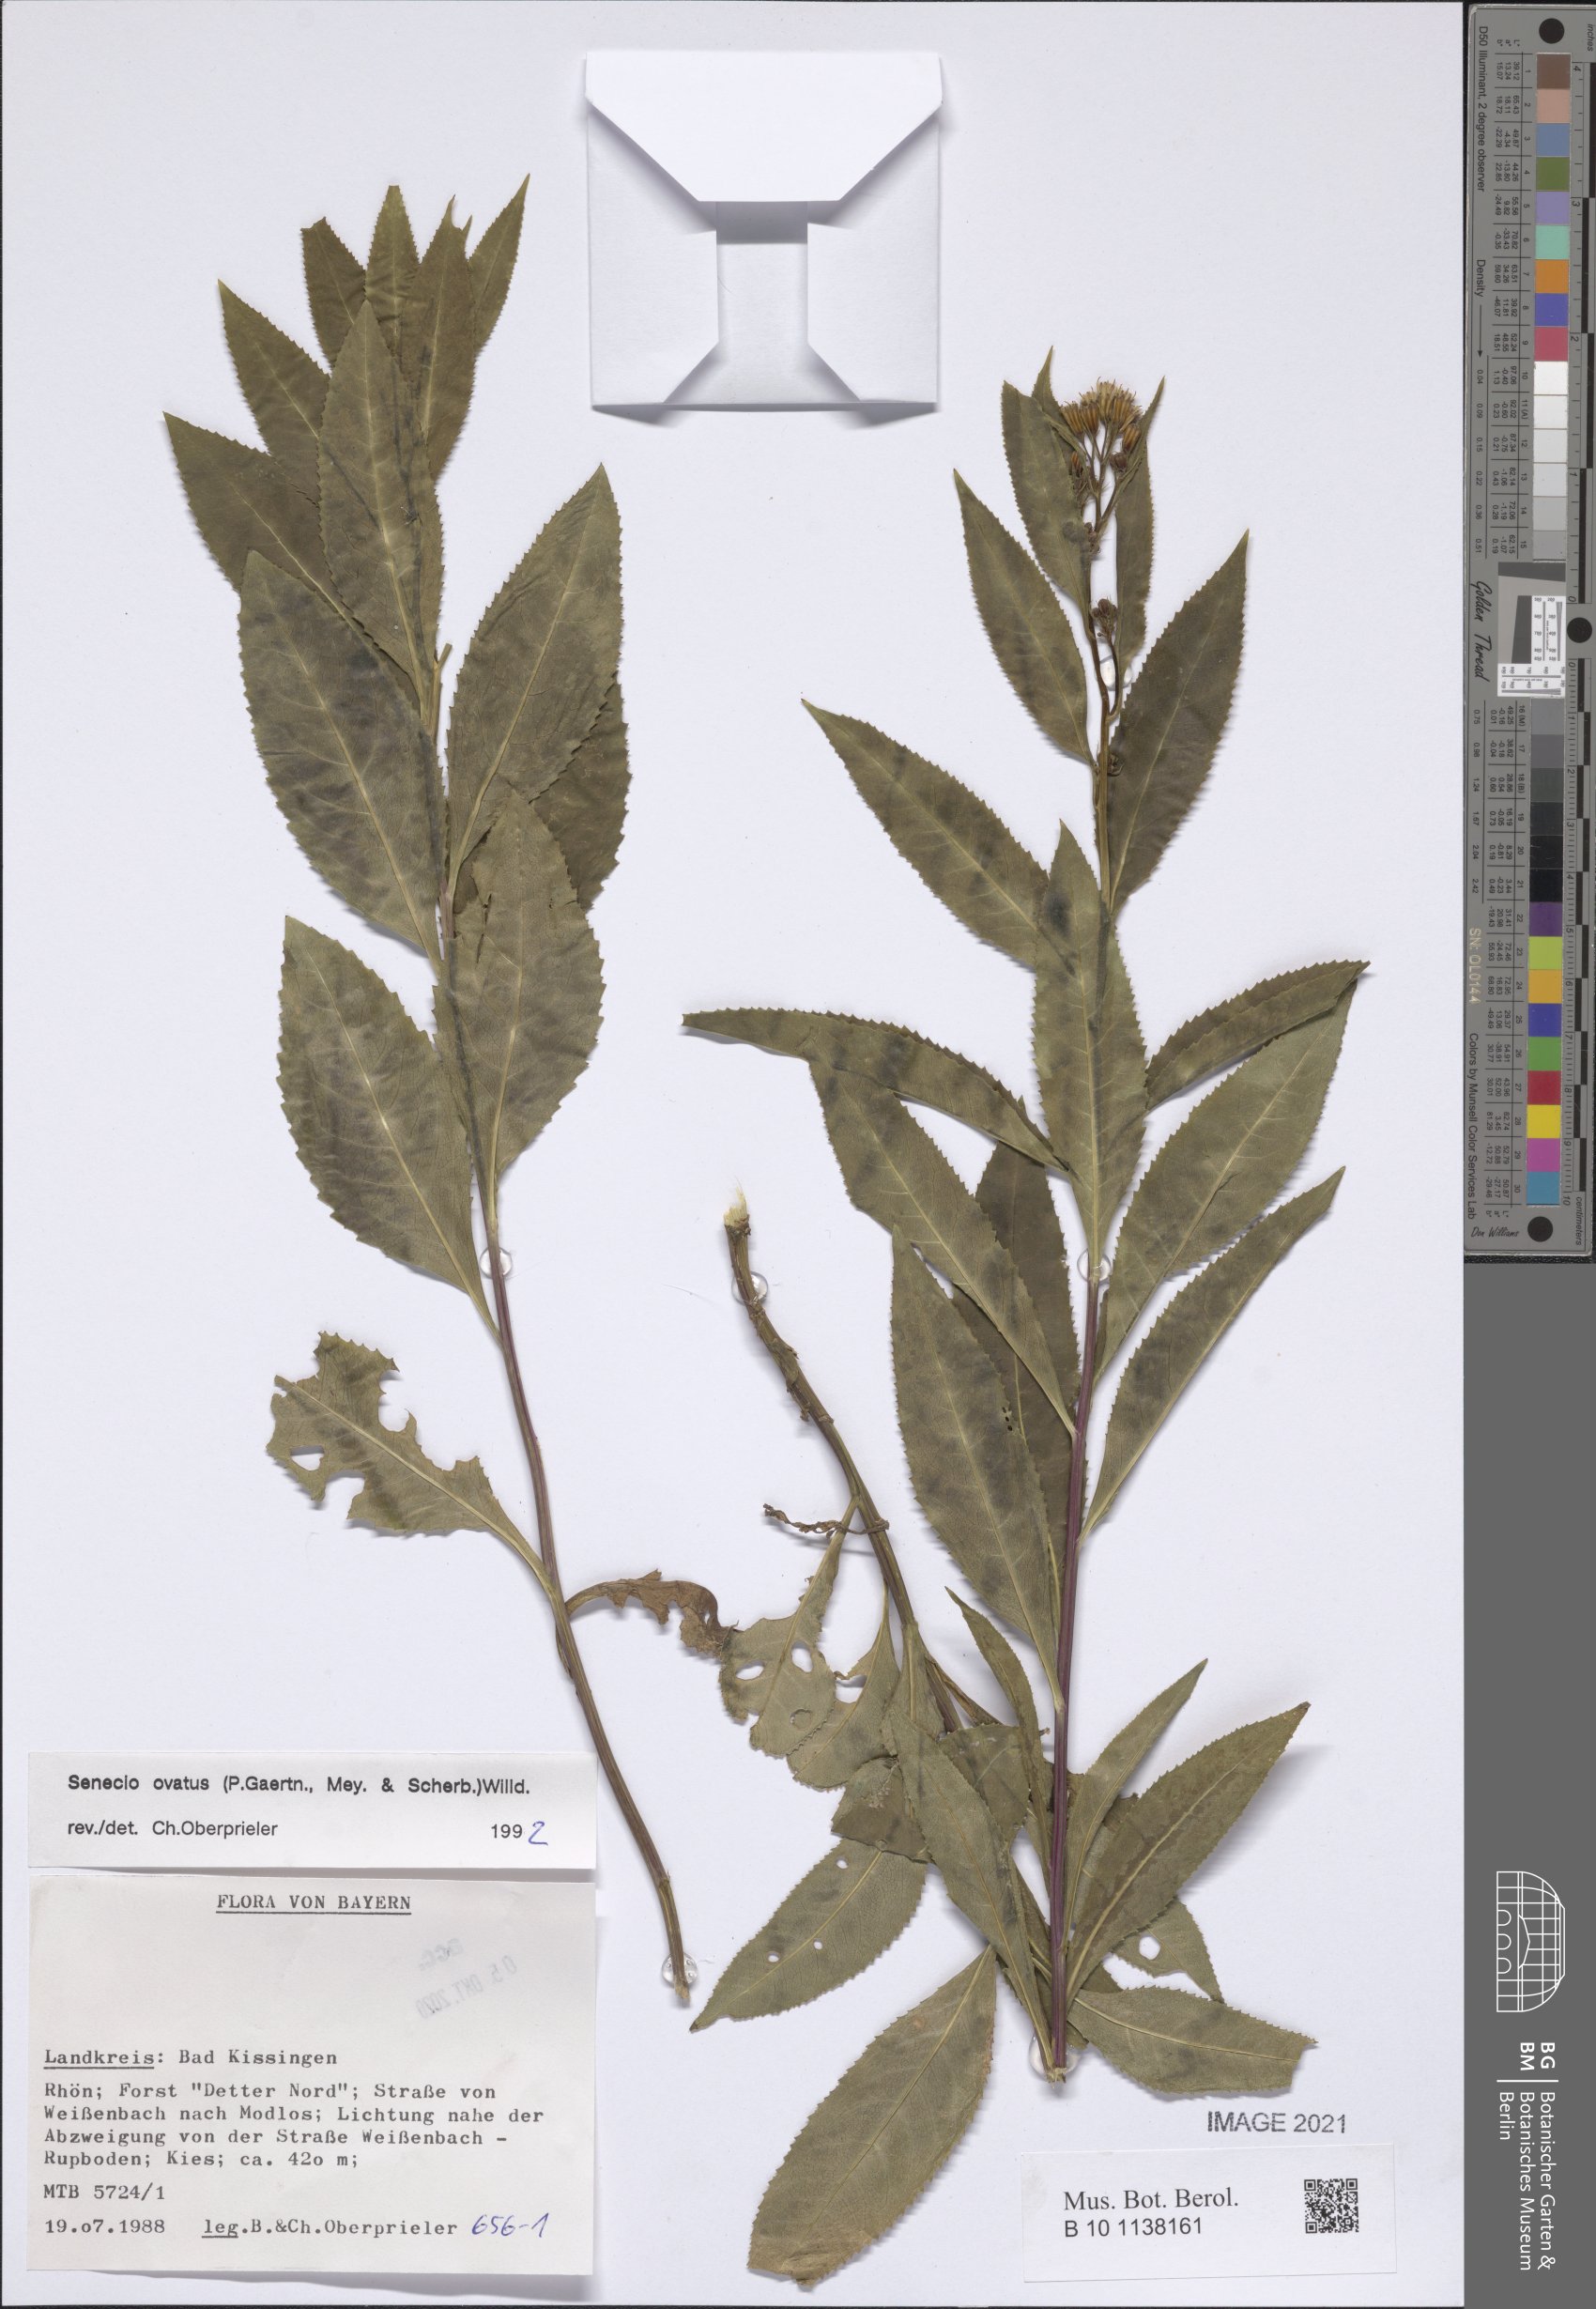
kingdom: Plantae
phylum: Tracheophyta
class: Magnoliopsida
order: Asterales
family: Asteraceae
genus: Senecio
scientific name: Senecio ovatus
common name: Wood ragwort
